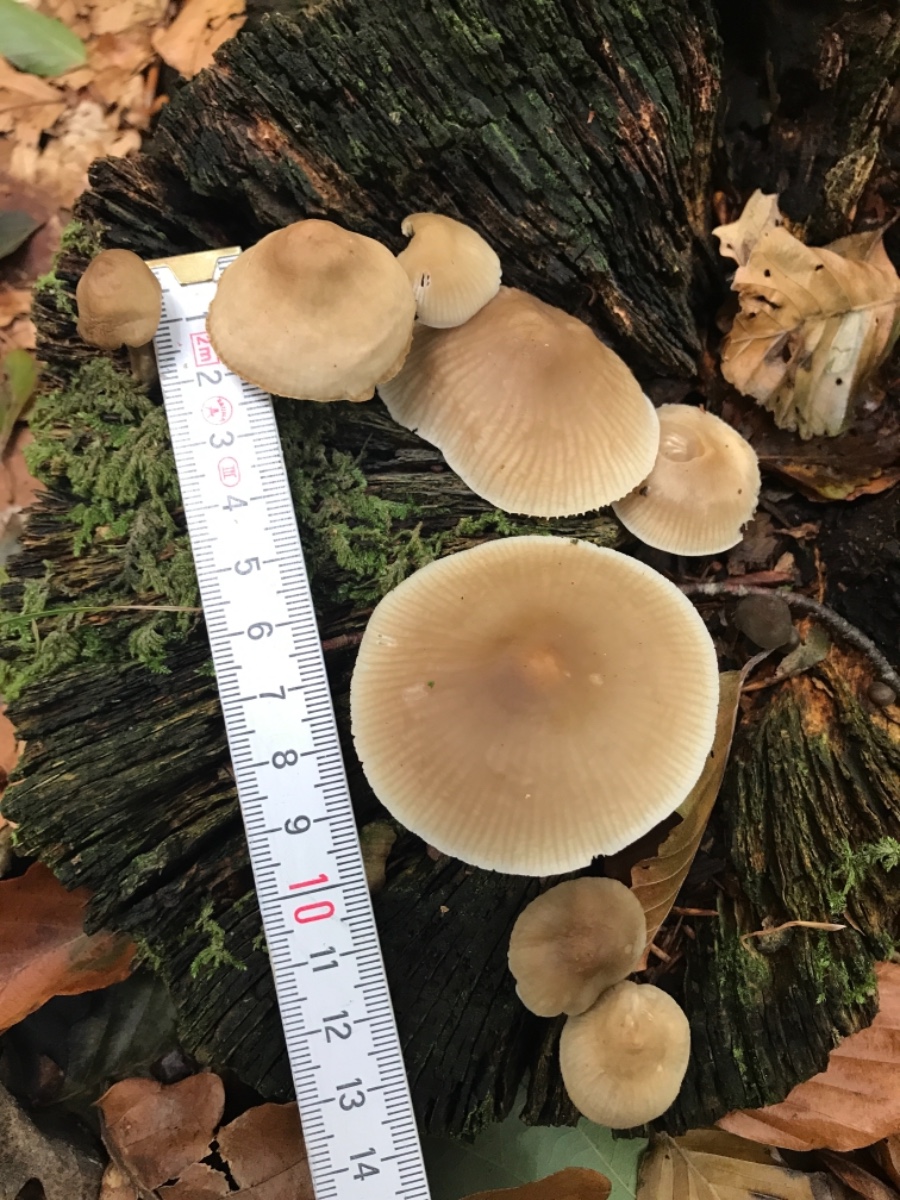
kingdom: Fungi
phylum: Basidiomycota
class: Agaricomycetes
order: Agaricales
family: Mycenaceae
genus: Mycena
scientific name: Mycena galericulata
